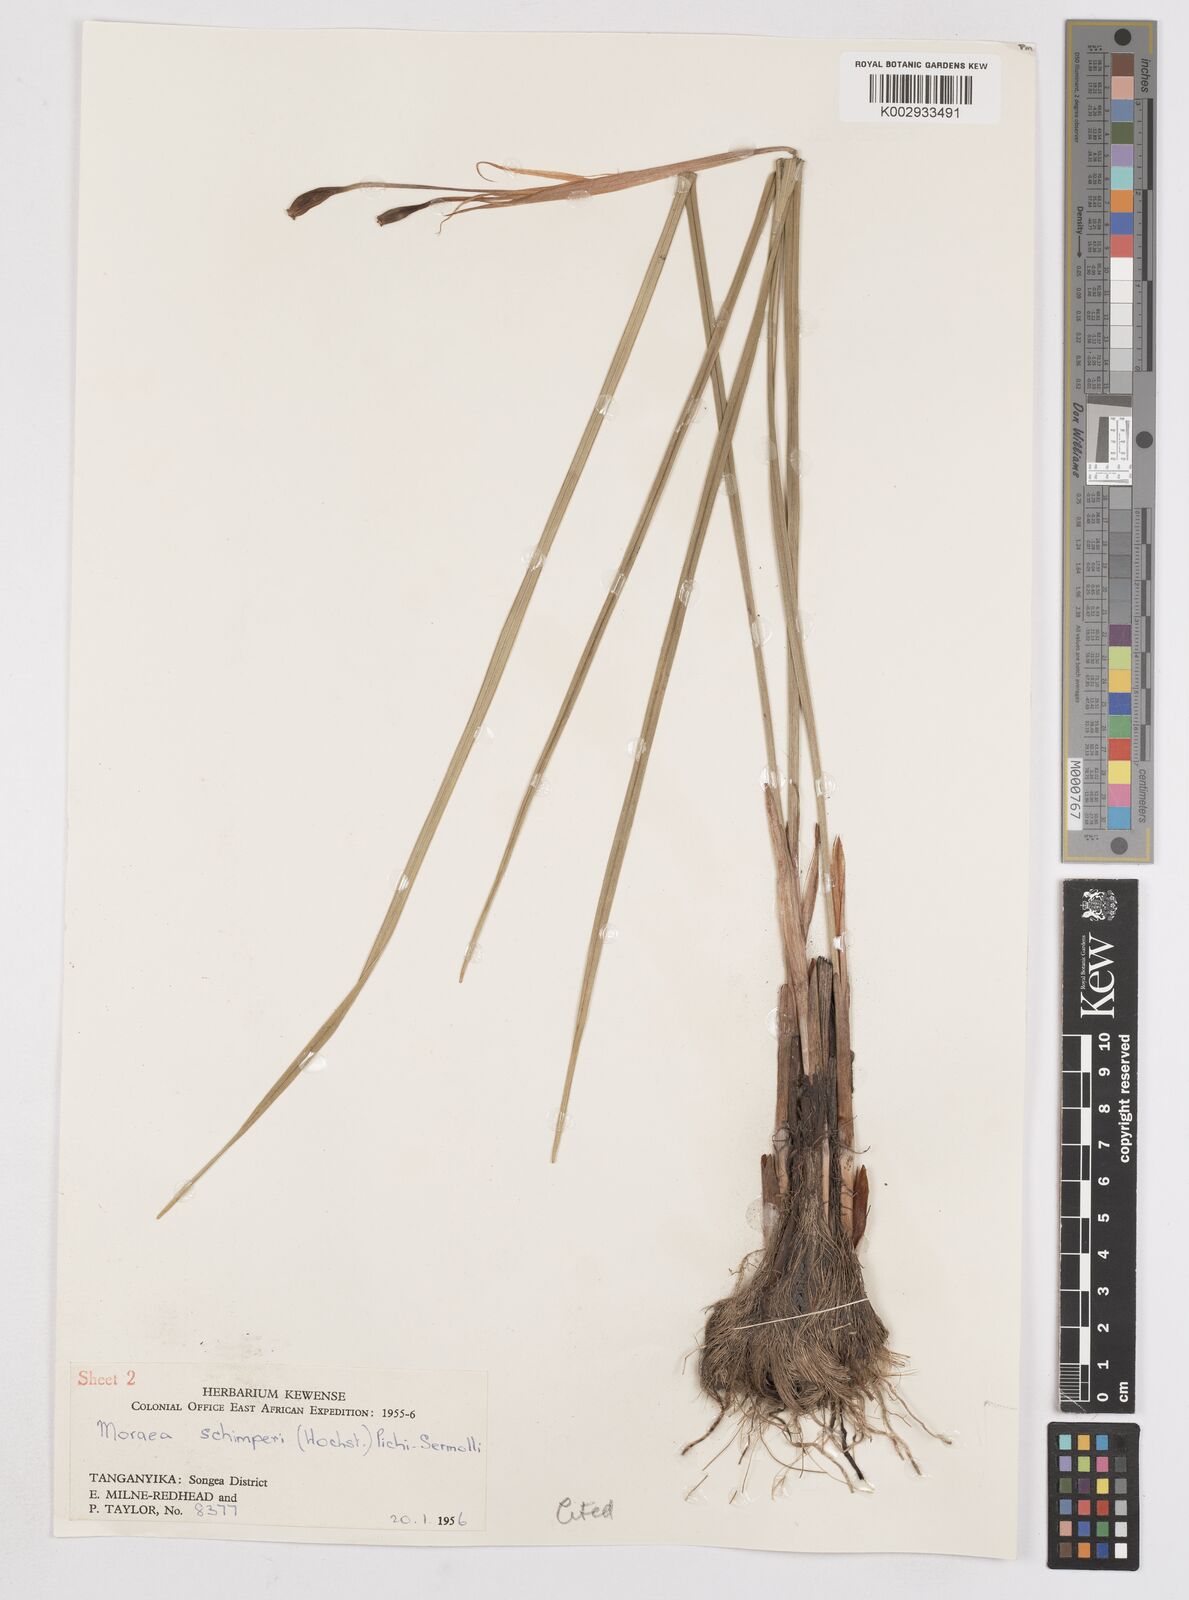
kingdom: Plantae
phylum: Tracheophyta
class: Liliopsida
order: Asparagales
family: Iridaceae
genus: Moraea
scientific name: Moraea schimperi
